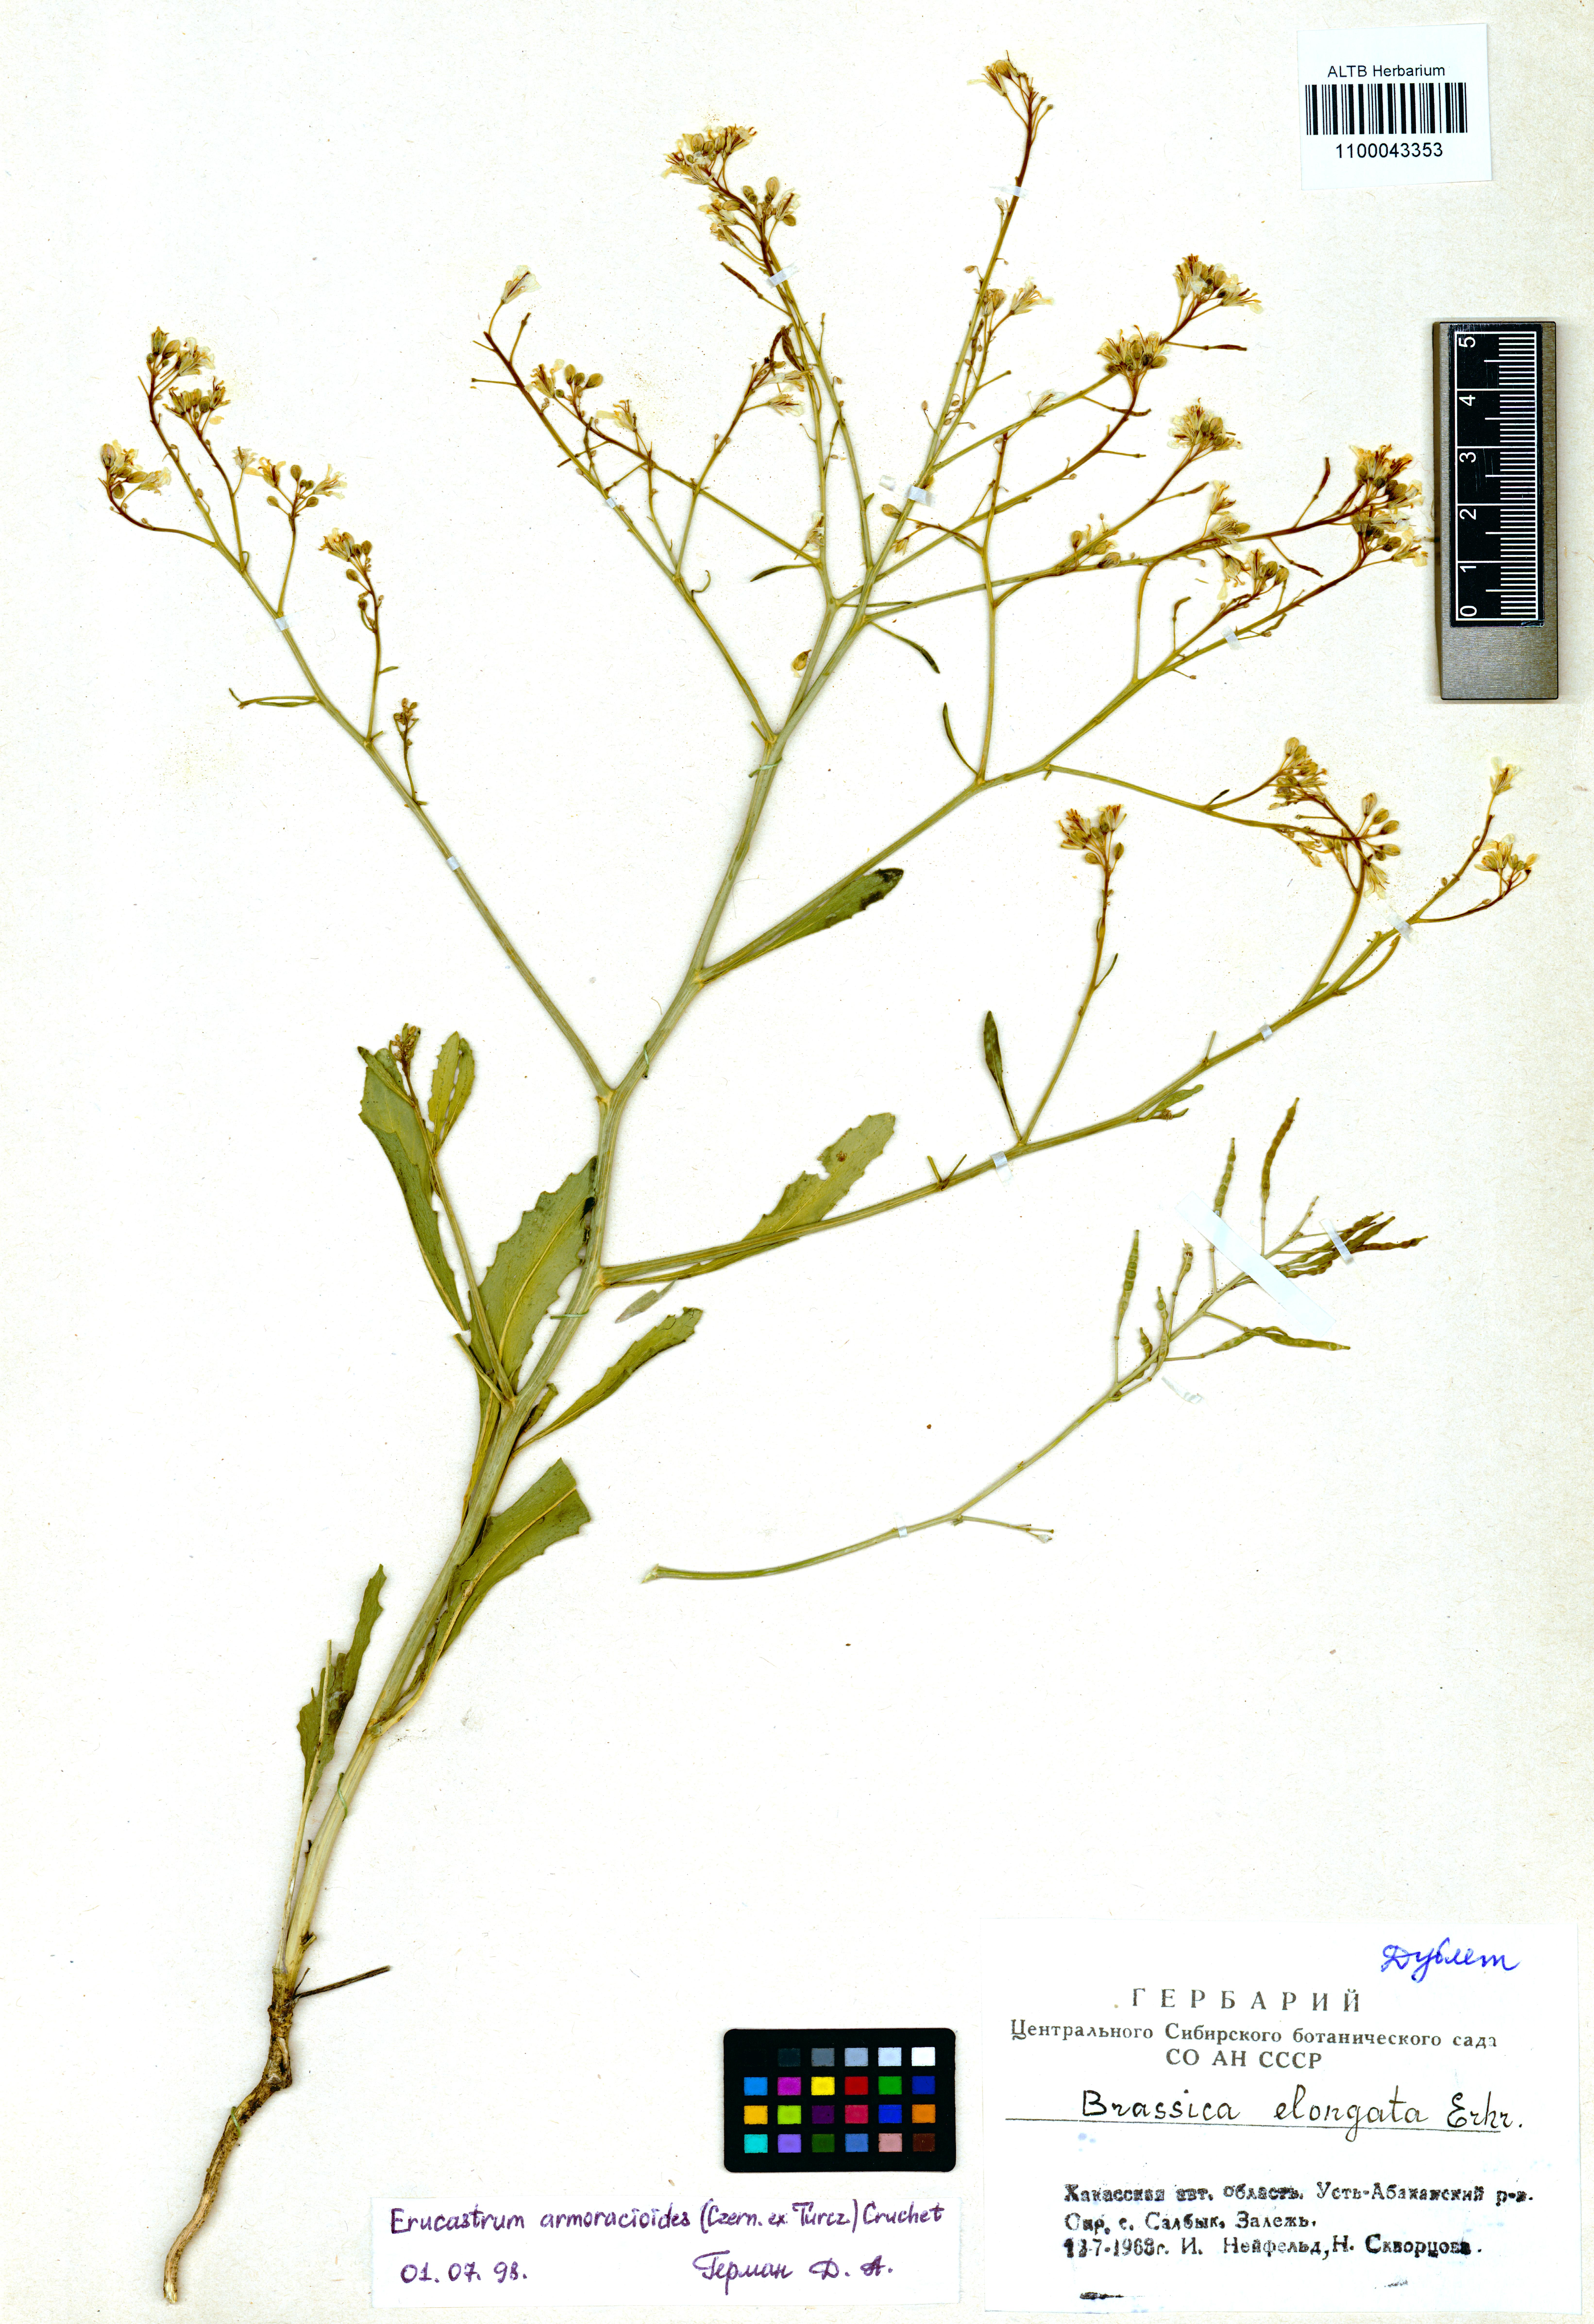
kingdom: Plantae
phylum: Tracheophyta
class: Magnoliopsida
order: Brassicales
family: Brassicaceae
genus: Brassica
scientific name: Brassica elongata
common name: Long-stalked rape
